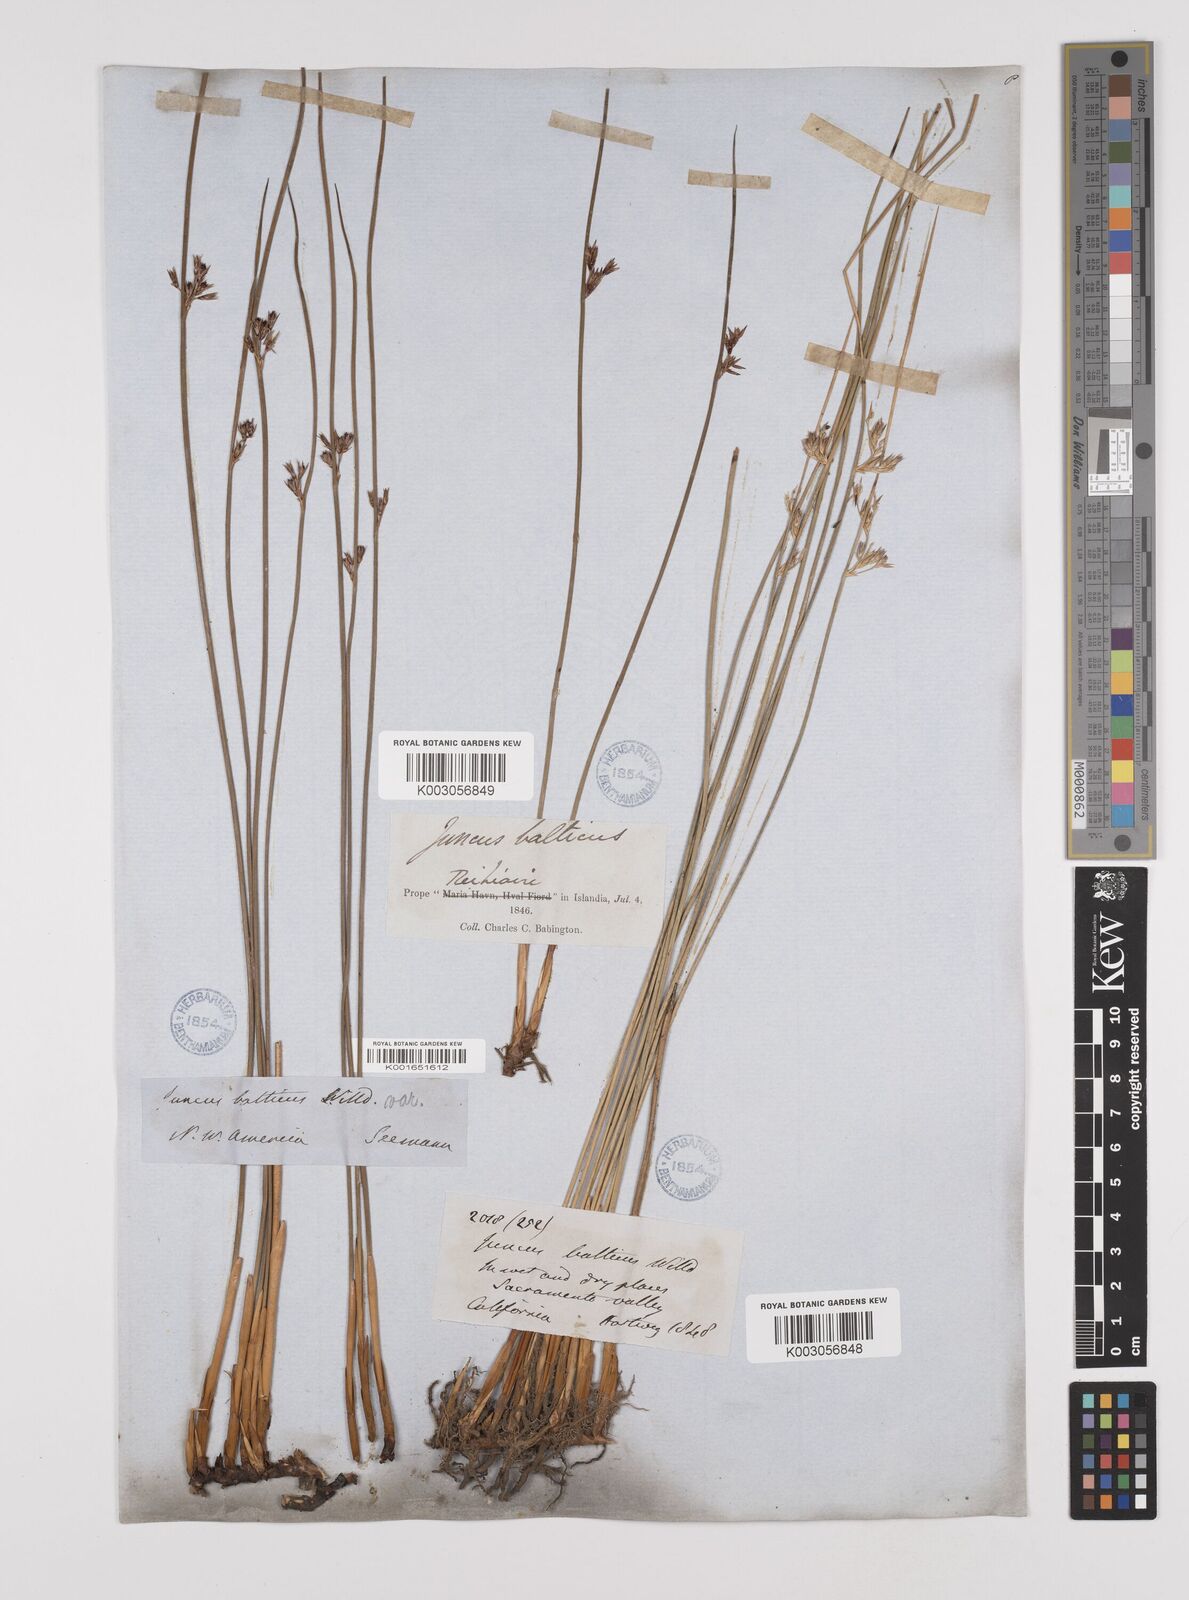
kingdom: Plantae
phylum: Tracheophyta
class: Liliopsida
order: Poales
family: Juncaceae
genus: Juncus
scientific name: Juncus balticus
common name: Baltic rush
